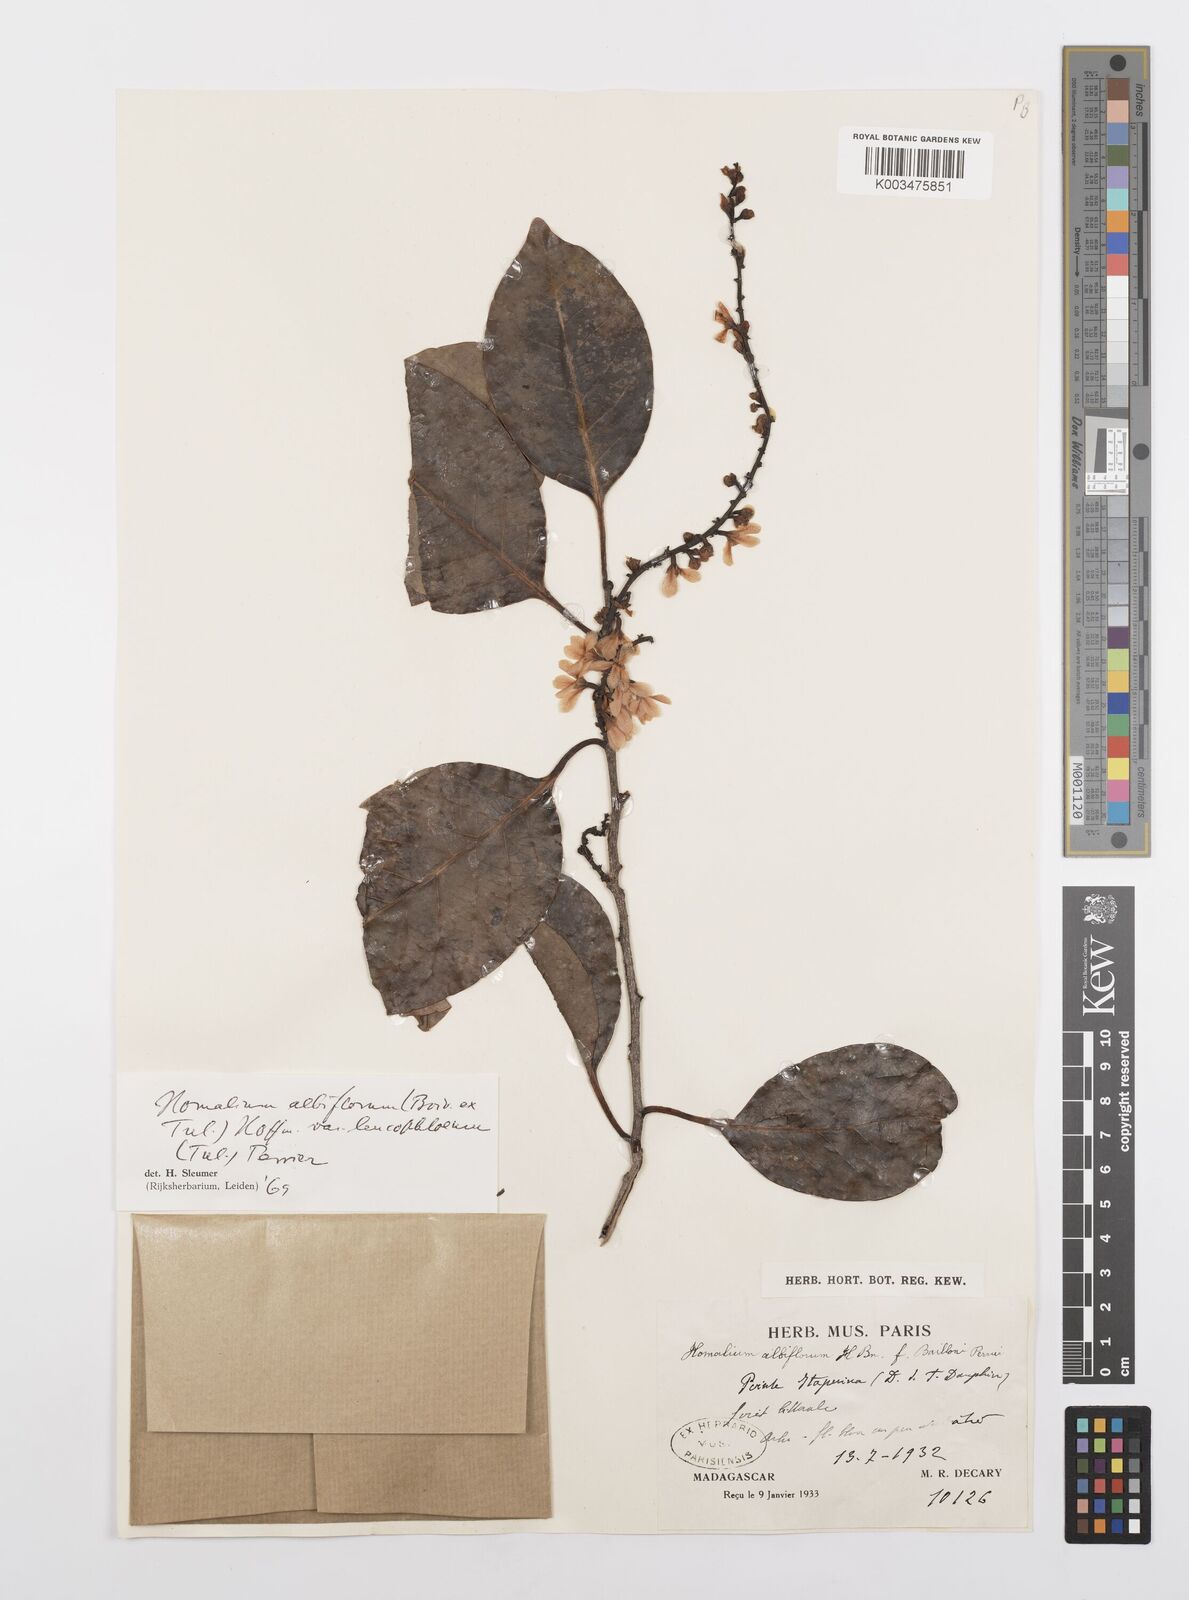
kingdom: Plantae
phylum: Tracheophyta
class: Liliopsida
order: Poales
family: Poaceae
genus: Imperata
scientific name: Imperata contracta
